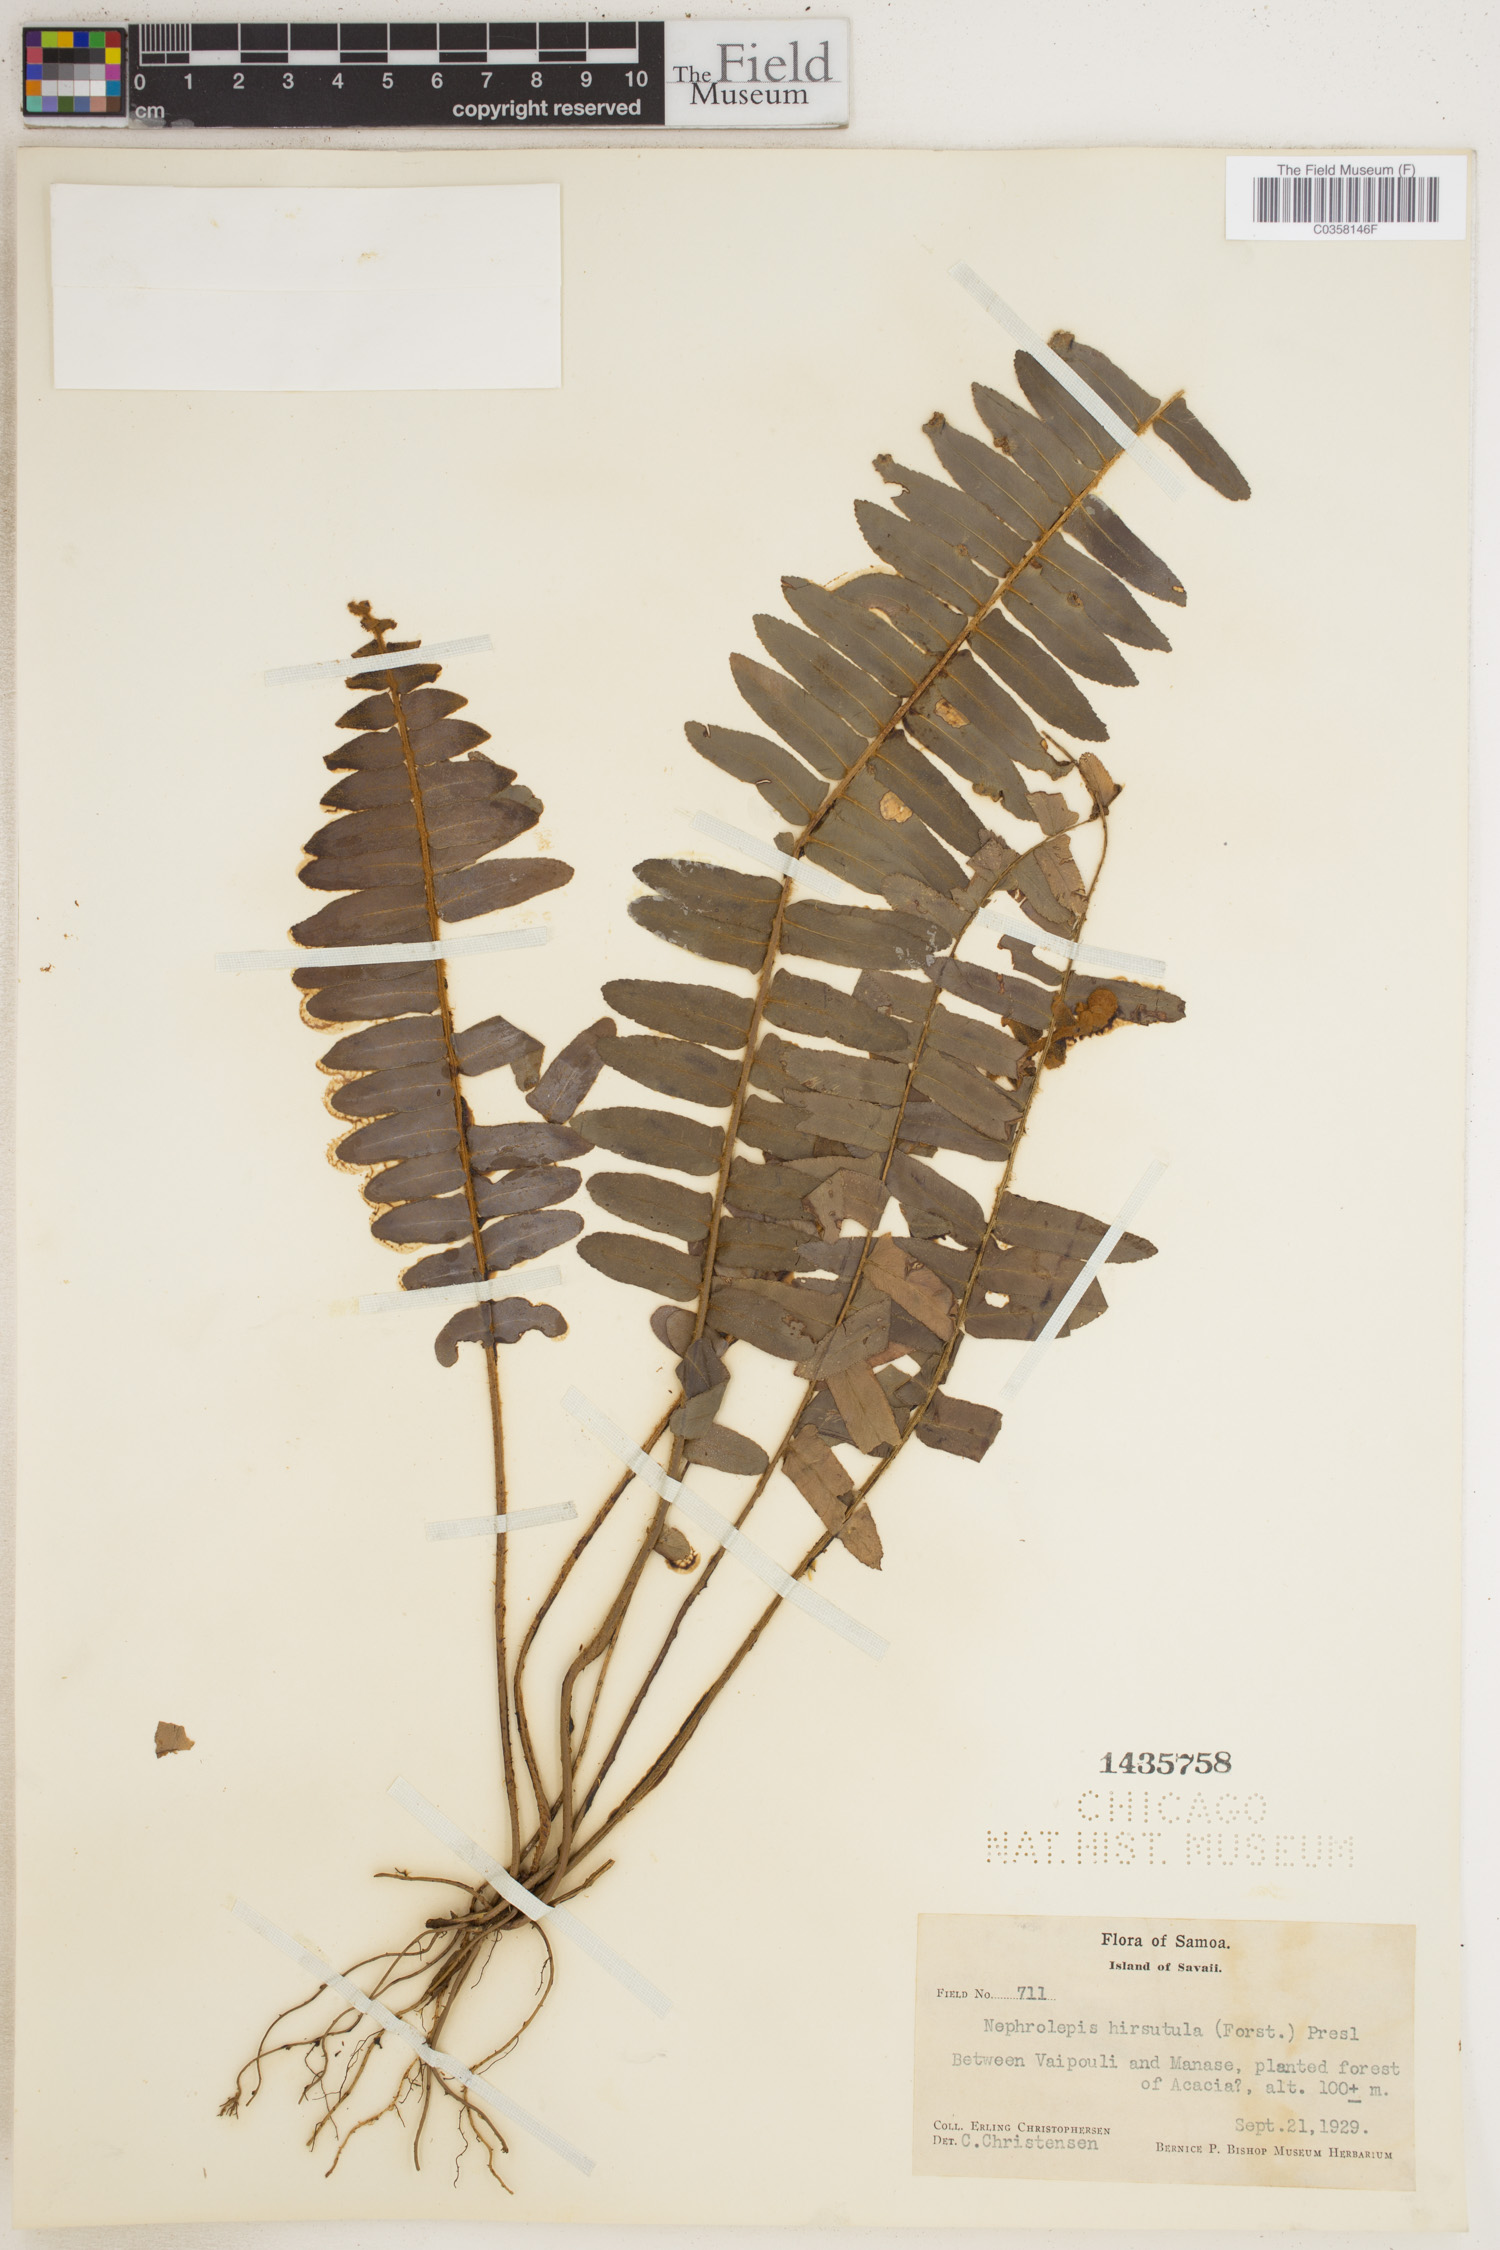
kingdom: Plantae
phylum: Tracheophyta
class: Polypodiopsida
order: Polypodiales
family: Nephrolepidaceae
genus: Nephrolepis
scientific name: Nephrolepis hirsutula
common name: Asian sword fern
